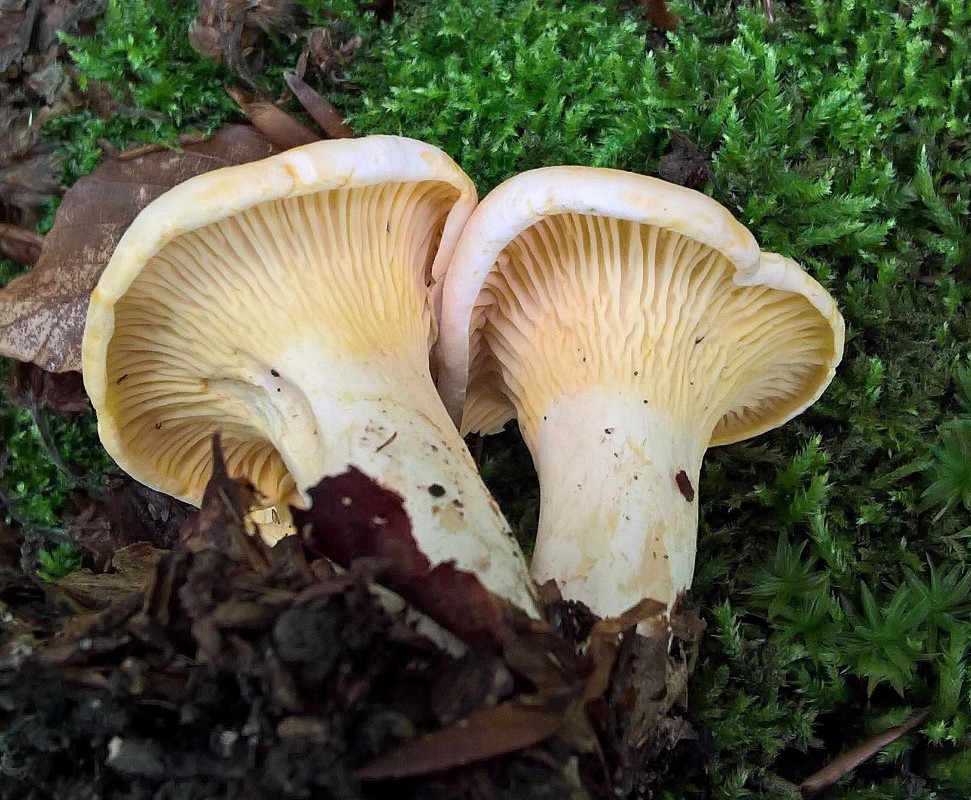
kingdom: Fungi
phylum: Basidiomycota
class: Agaricomycetes
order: Cantharellales
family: Hydnaceae
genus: Cantharellus
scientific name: Cantharellus pallens
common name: bleg kantarel
